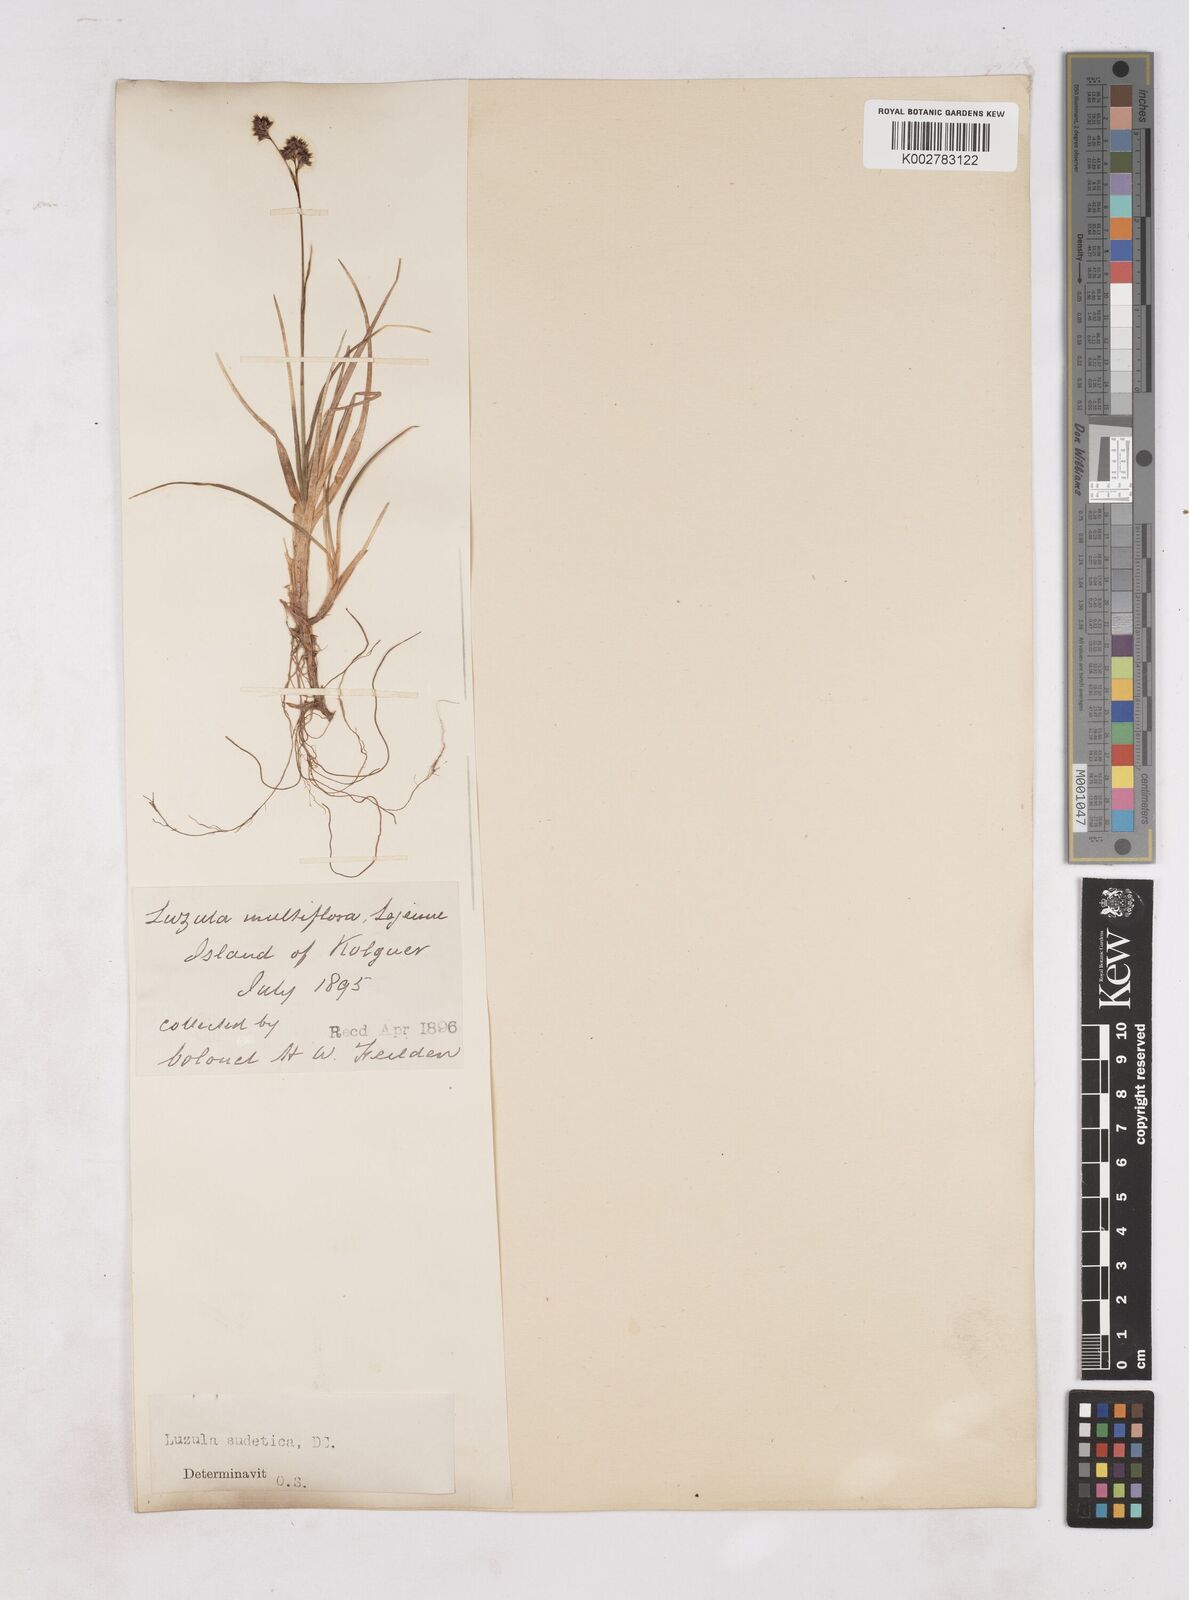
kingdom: Plantae
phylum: Tracheophyta
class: Liliopsida
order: Poales
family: Juncaceae
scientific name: Juncaceae
